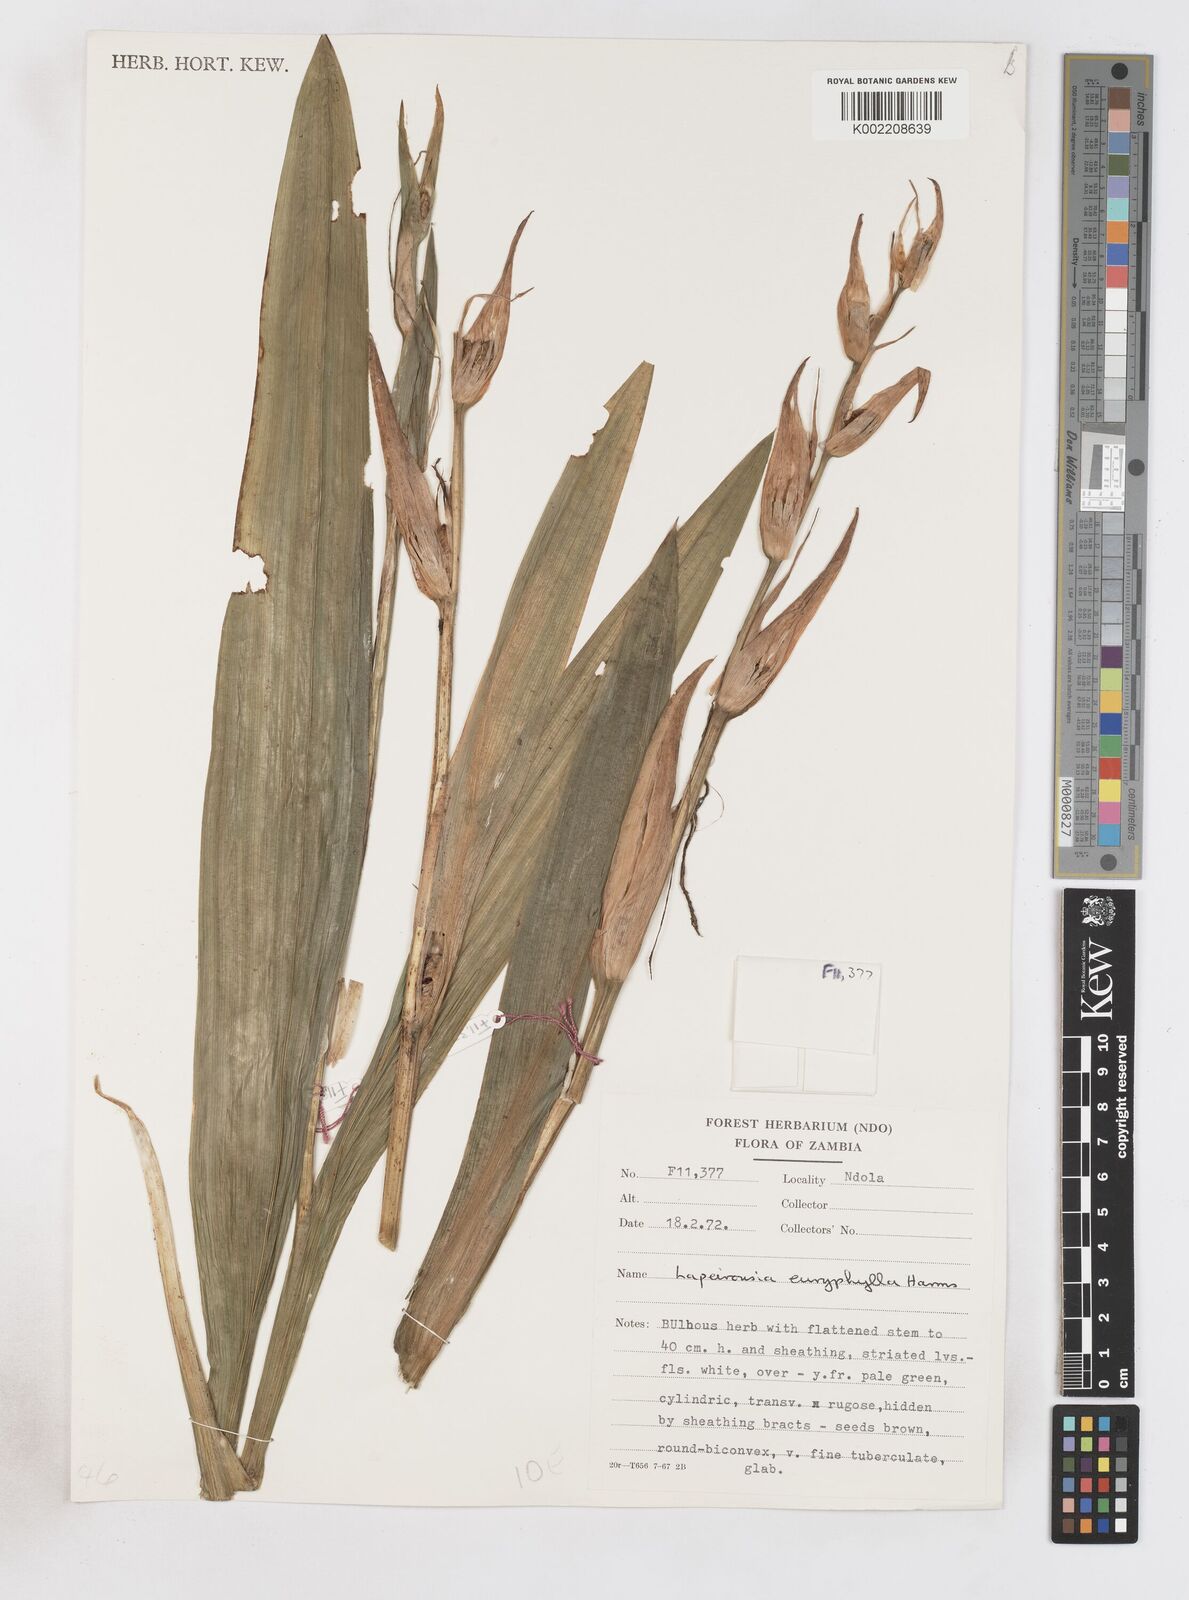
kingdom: Plantae
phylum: Tracheophyta
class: Liliopsida
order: Asparagales
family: Iridaceae
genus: Savannosiphon
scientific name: Savannosiphon euryphylla
